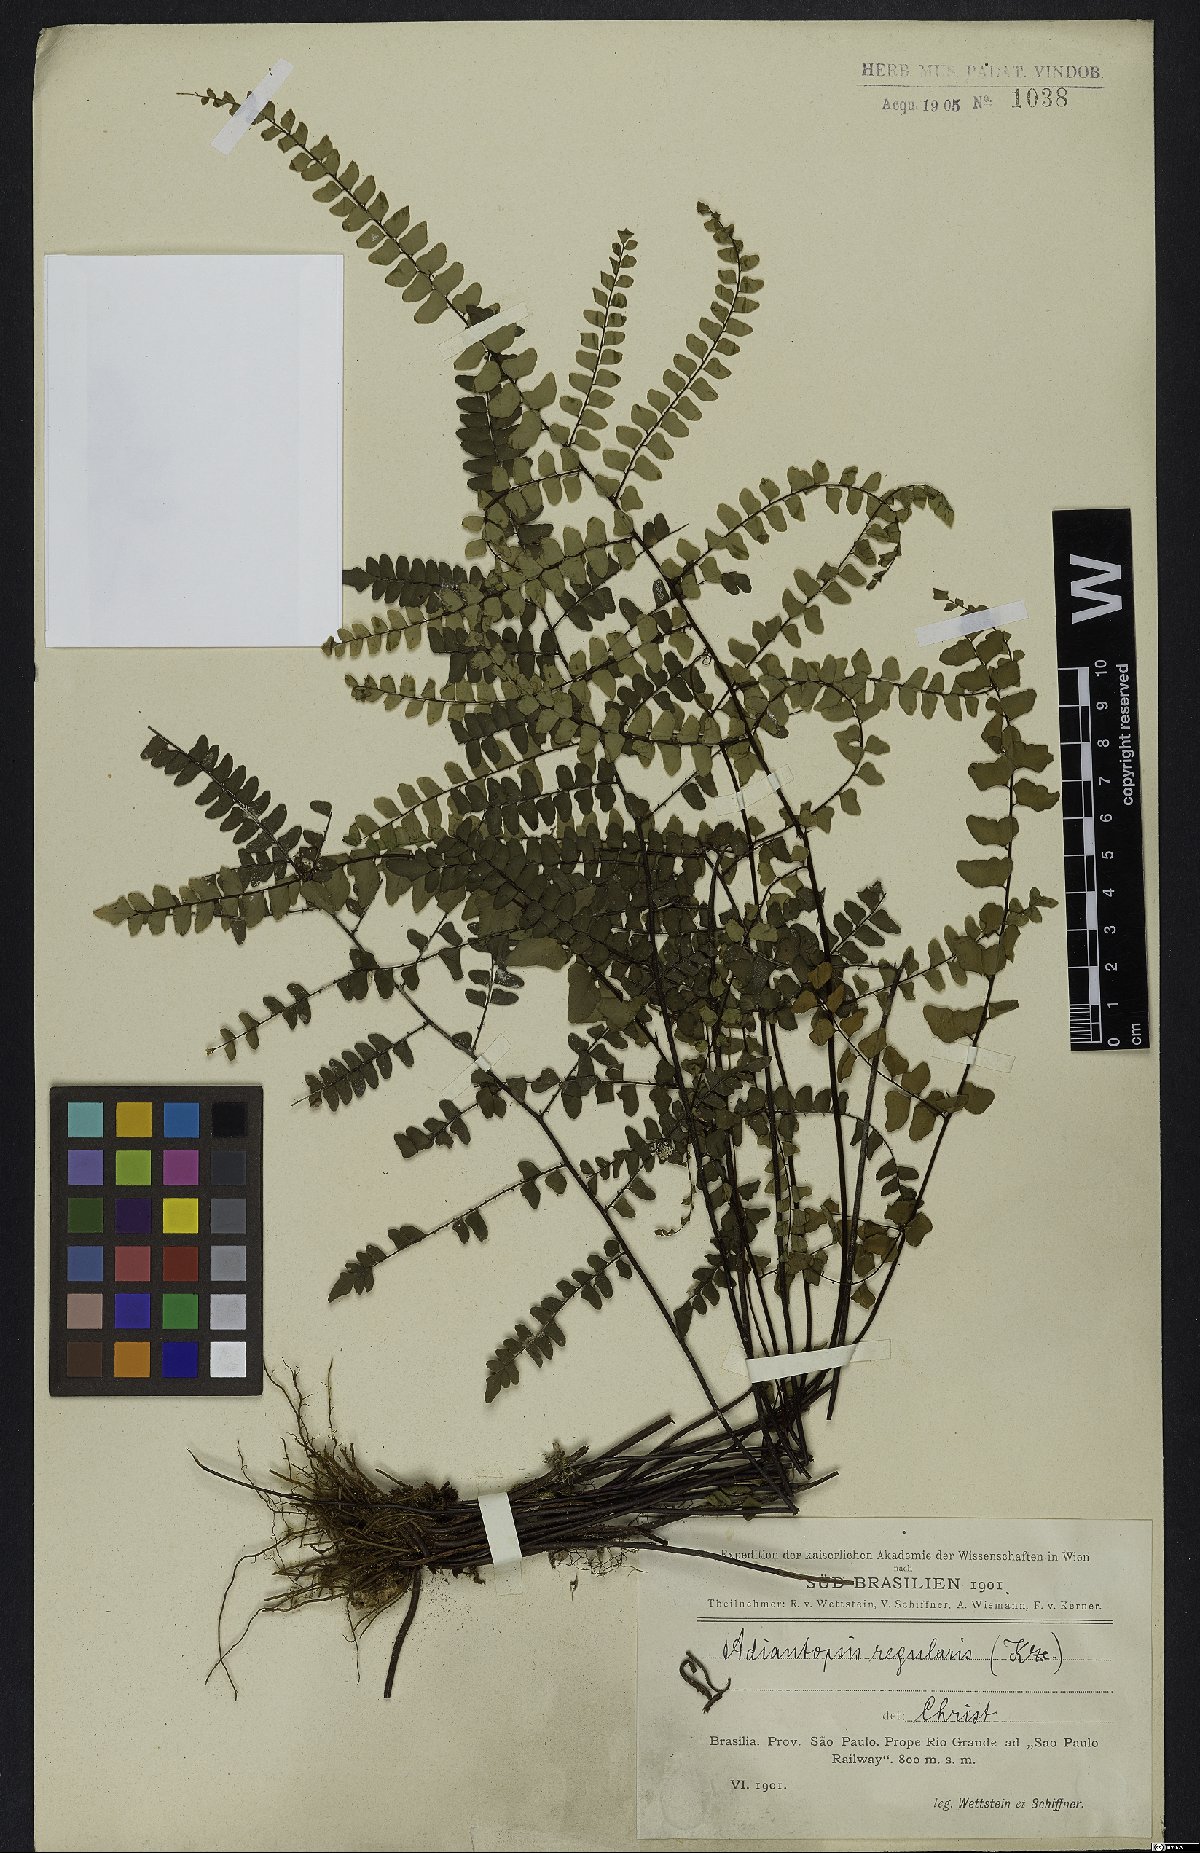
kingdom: Plantae
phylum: Tracheophyta
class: Polypodiopsida
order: Polypodiales
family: Pteridaceae
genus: Adiantopsis
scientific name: Adiantopsis regularis
